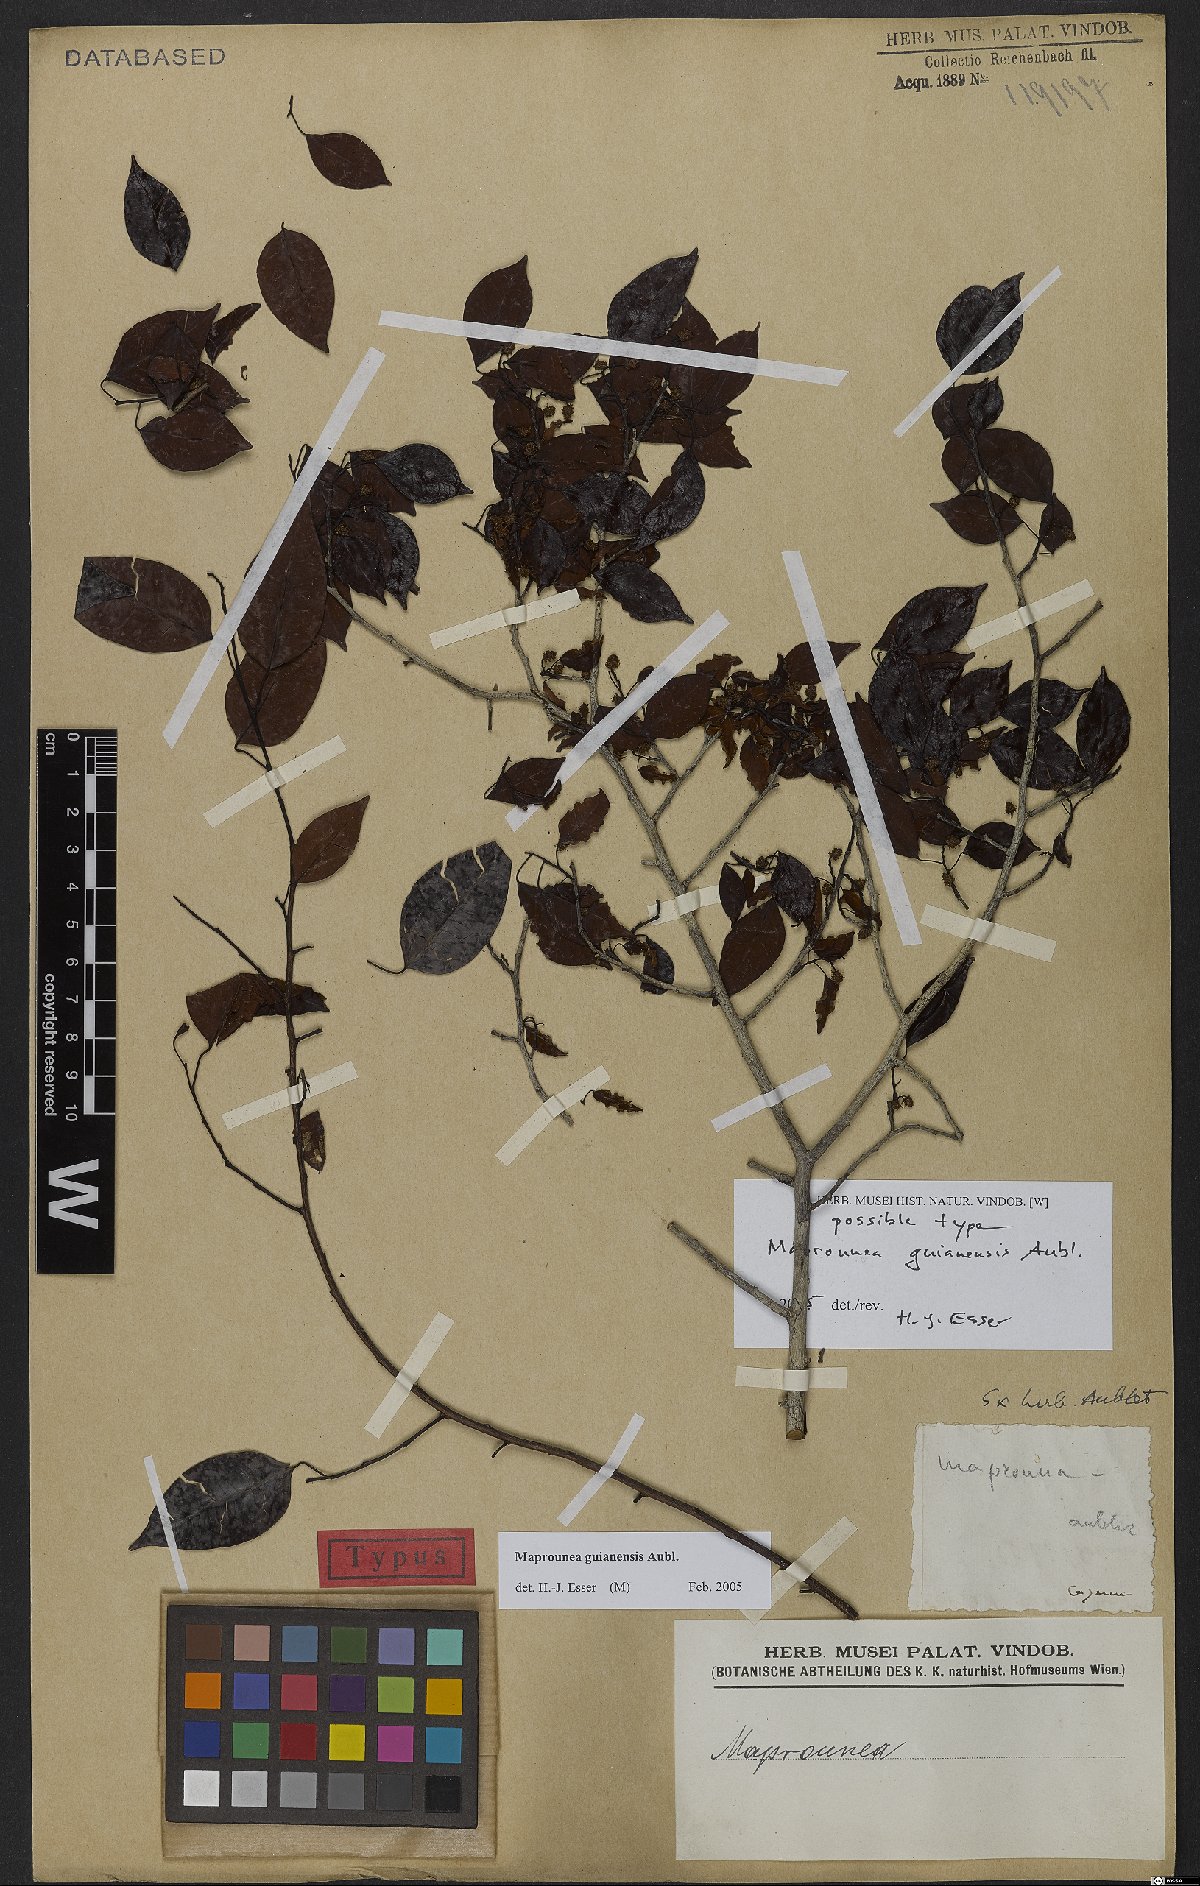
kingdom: Plantae
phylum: Tracheophyta
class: Magnoliopsida
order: Malpighiales
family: Euphorbiaceae
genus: Maprounea
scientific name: Maprounea guianensis
